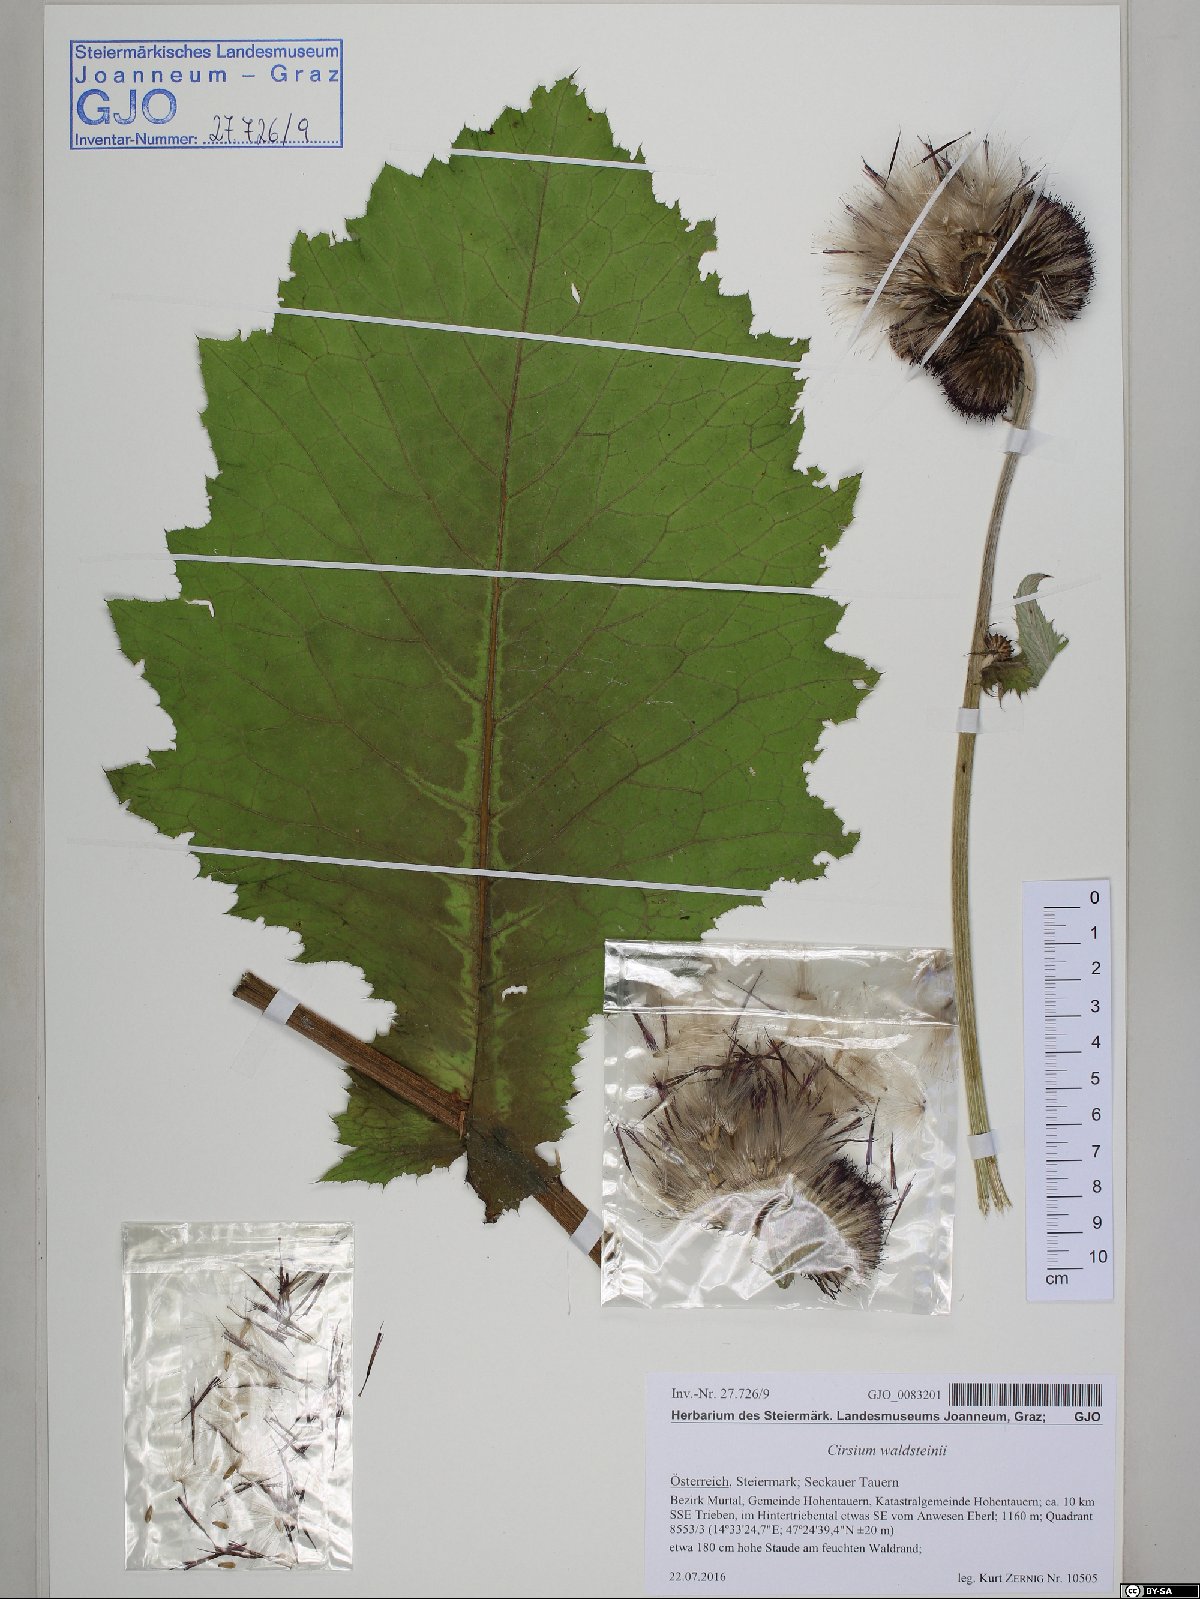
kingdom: Plantae
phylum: Tracheophyta
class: Magnoliopsida
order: Asterales
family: Asteraceae
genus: Cirsium
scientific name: Cirsium greimleri
